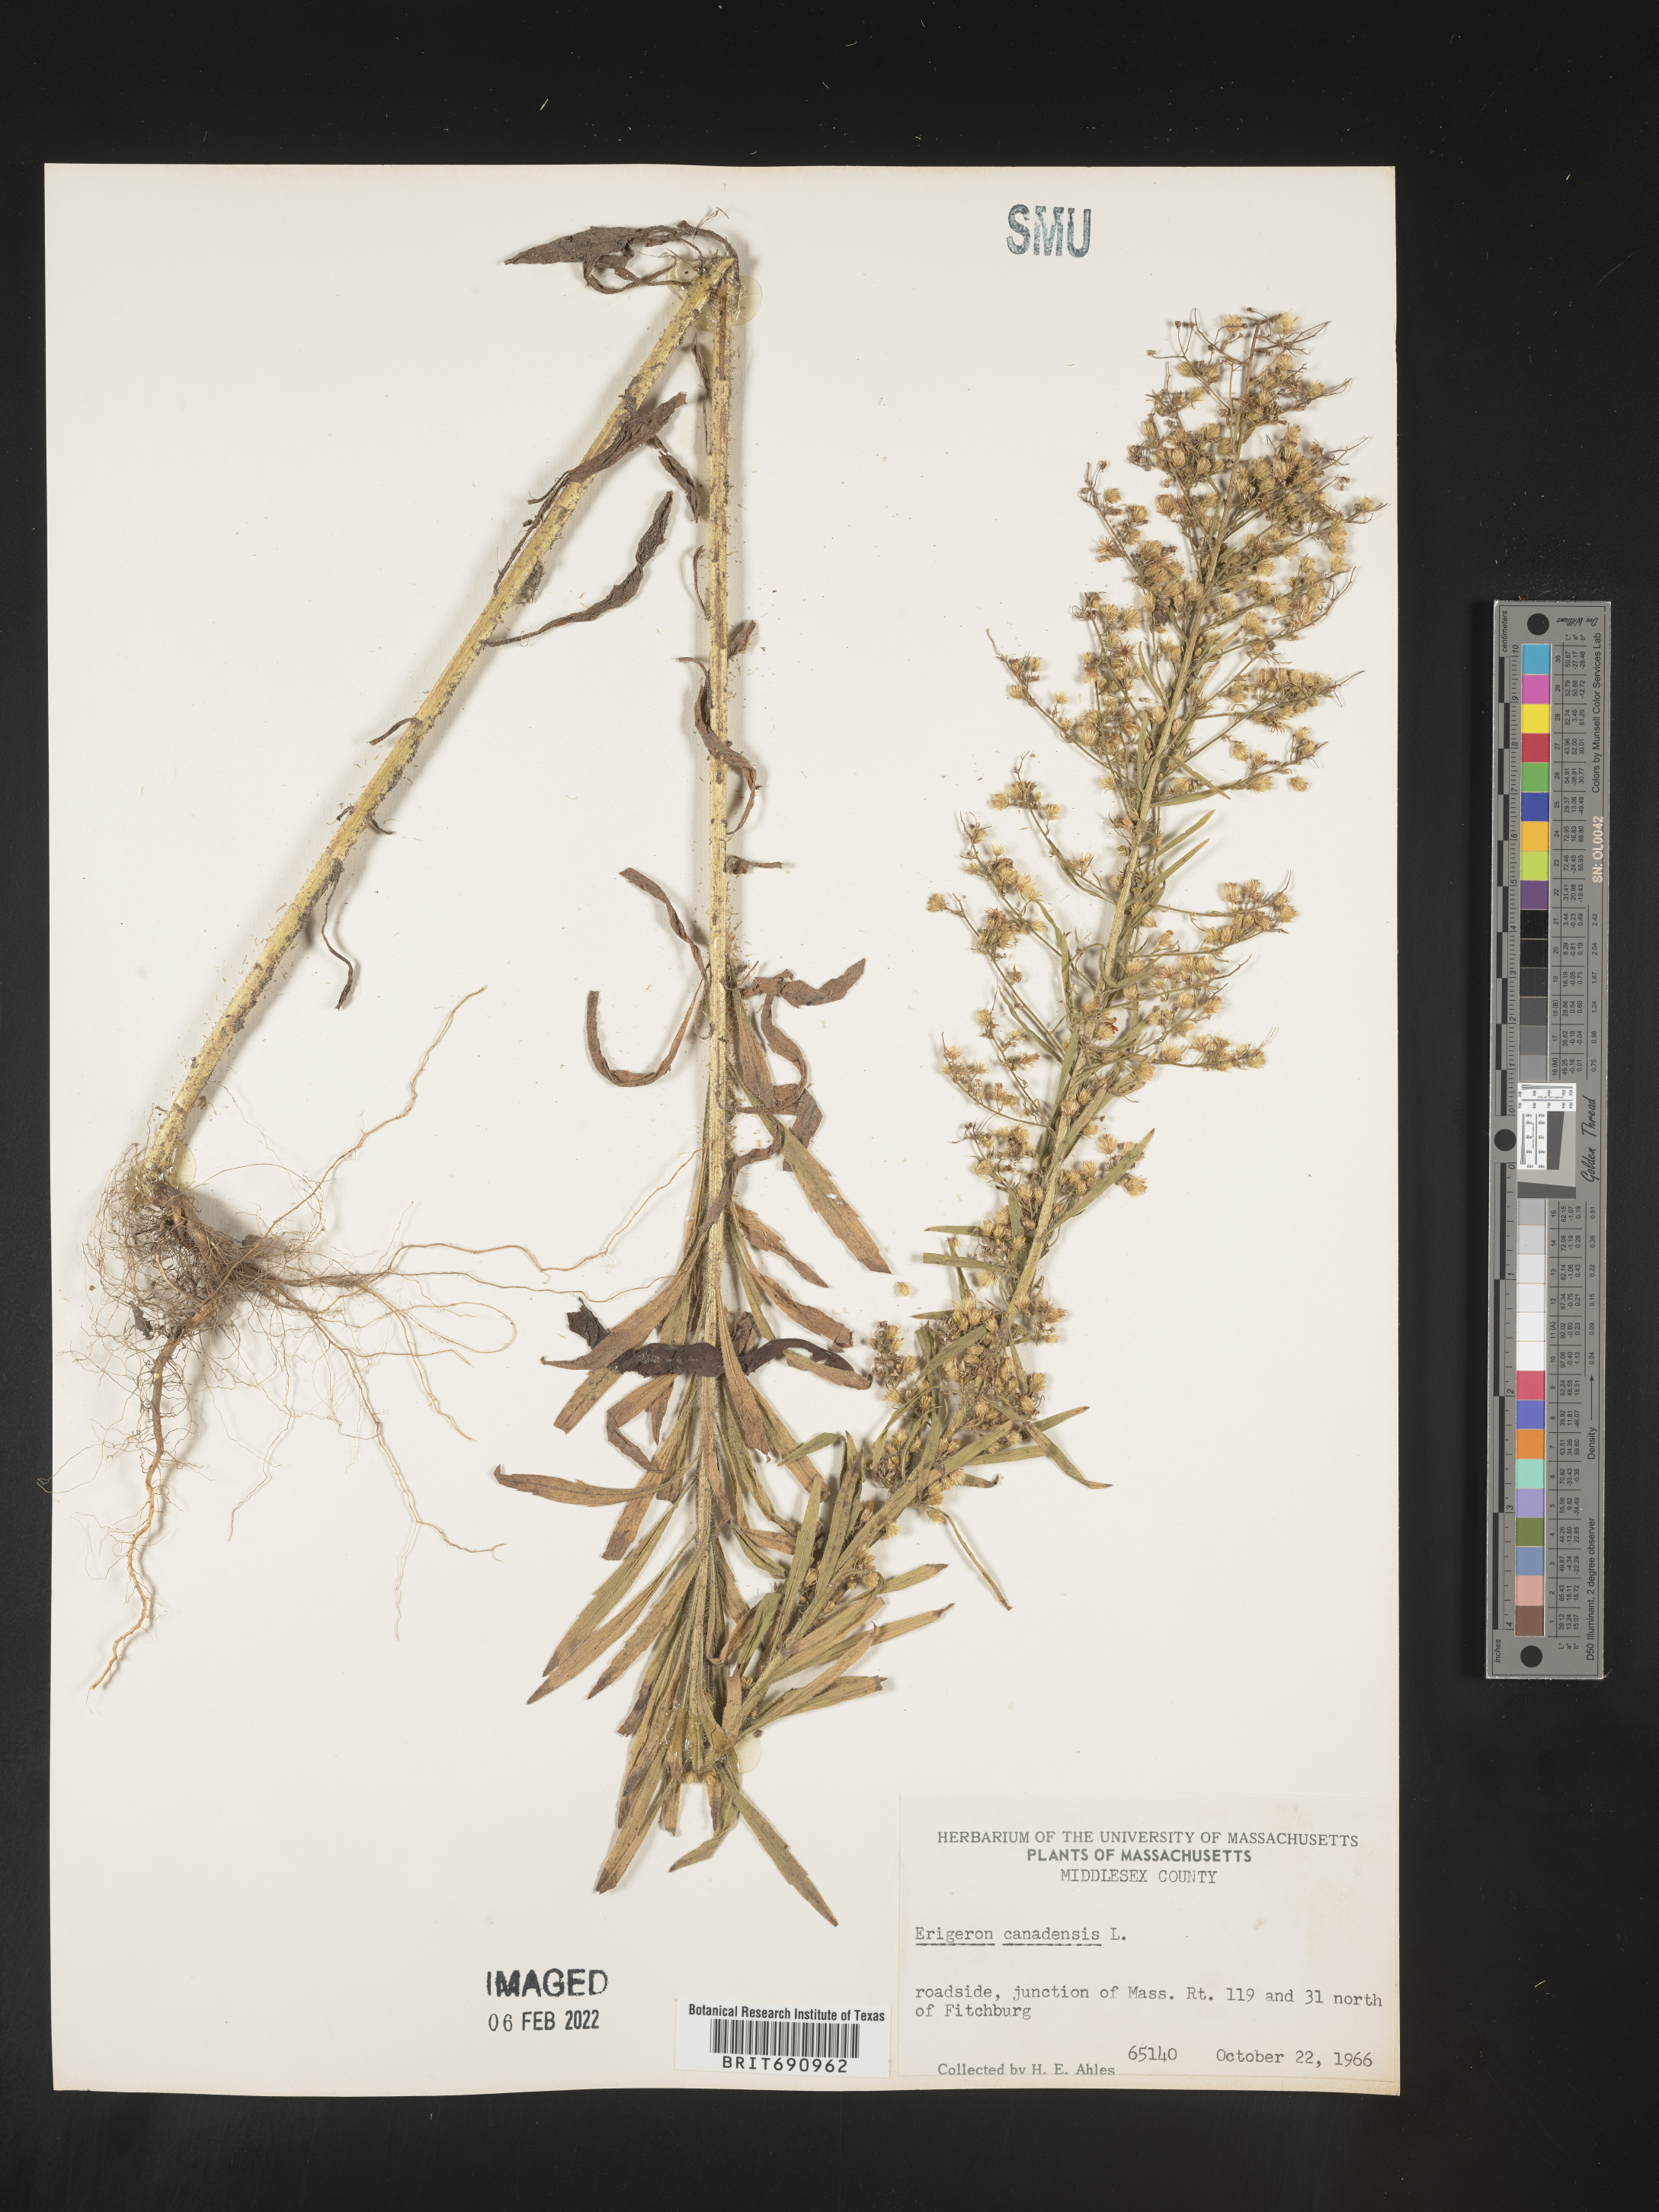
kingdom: Plantae
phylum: Tracheophyta
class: Magnoliopsida
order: Asterales
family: Asteraceae
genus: Erigeron
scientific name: Erigeron canadensis
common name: Canadian fleabane
